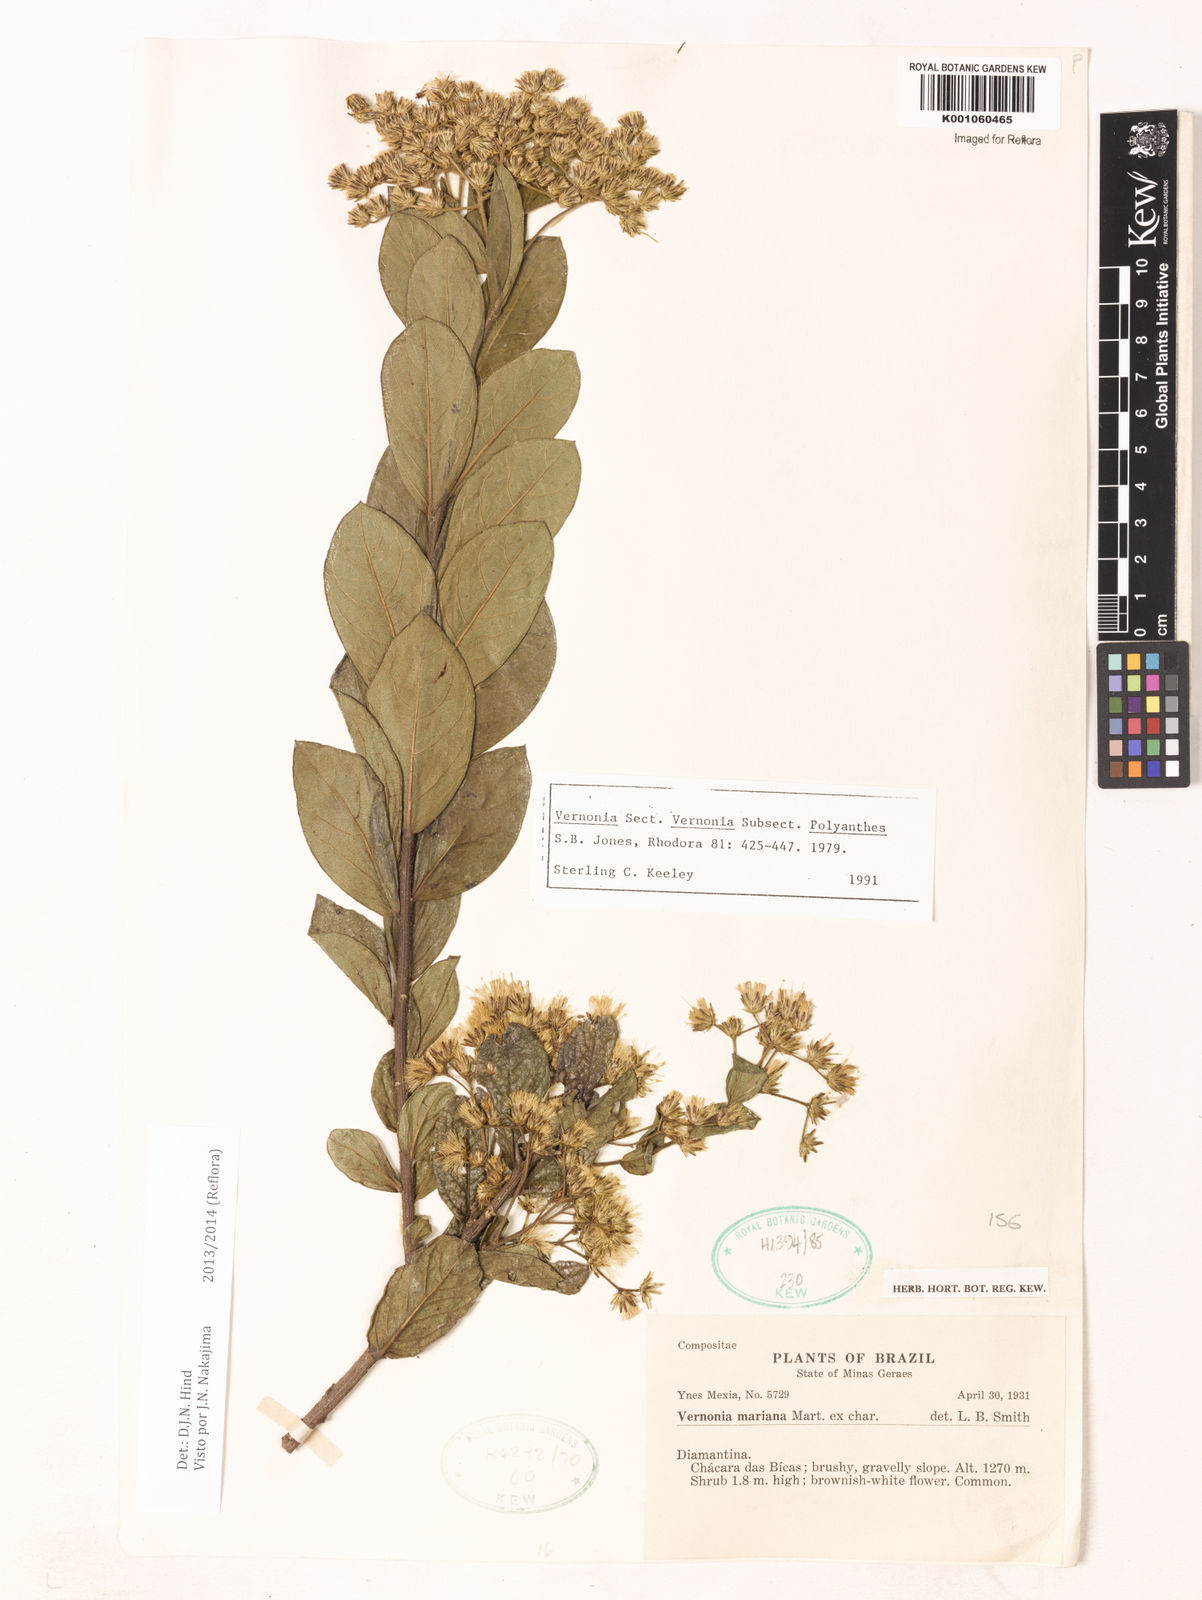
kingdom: Plantae
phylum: Tracheophyta
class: Magnoliopsida
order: Asterales
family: Asteraceae
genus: Vernonanthura
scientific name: Vernonanthura cymosa
